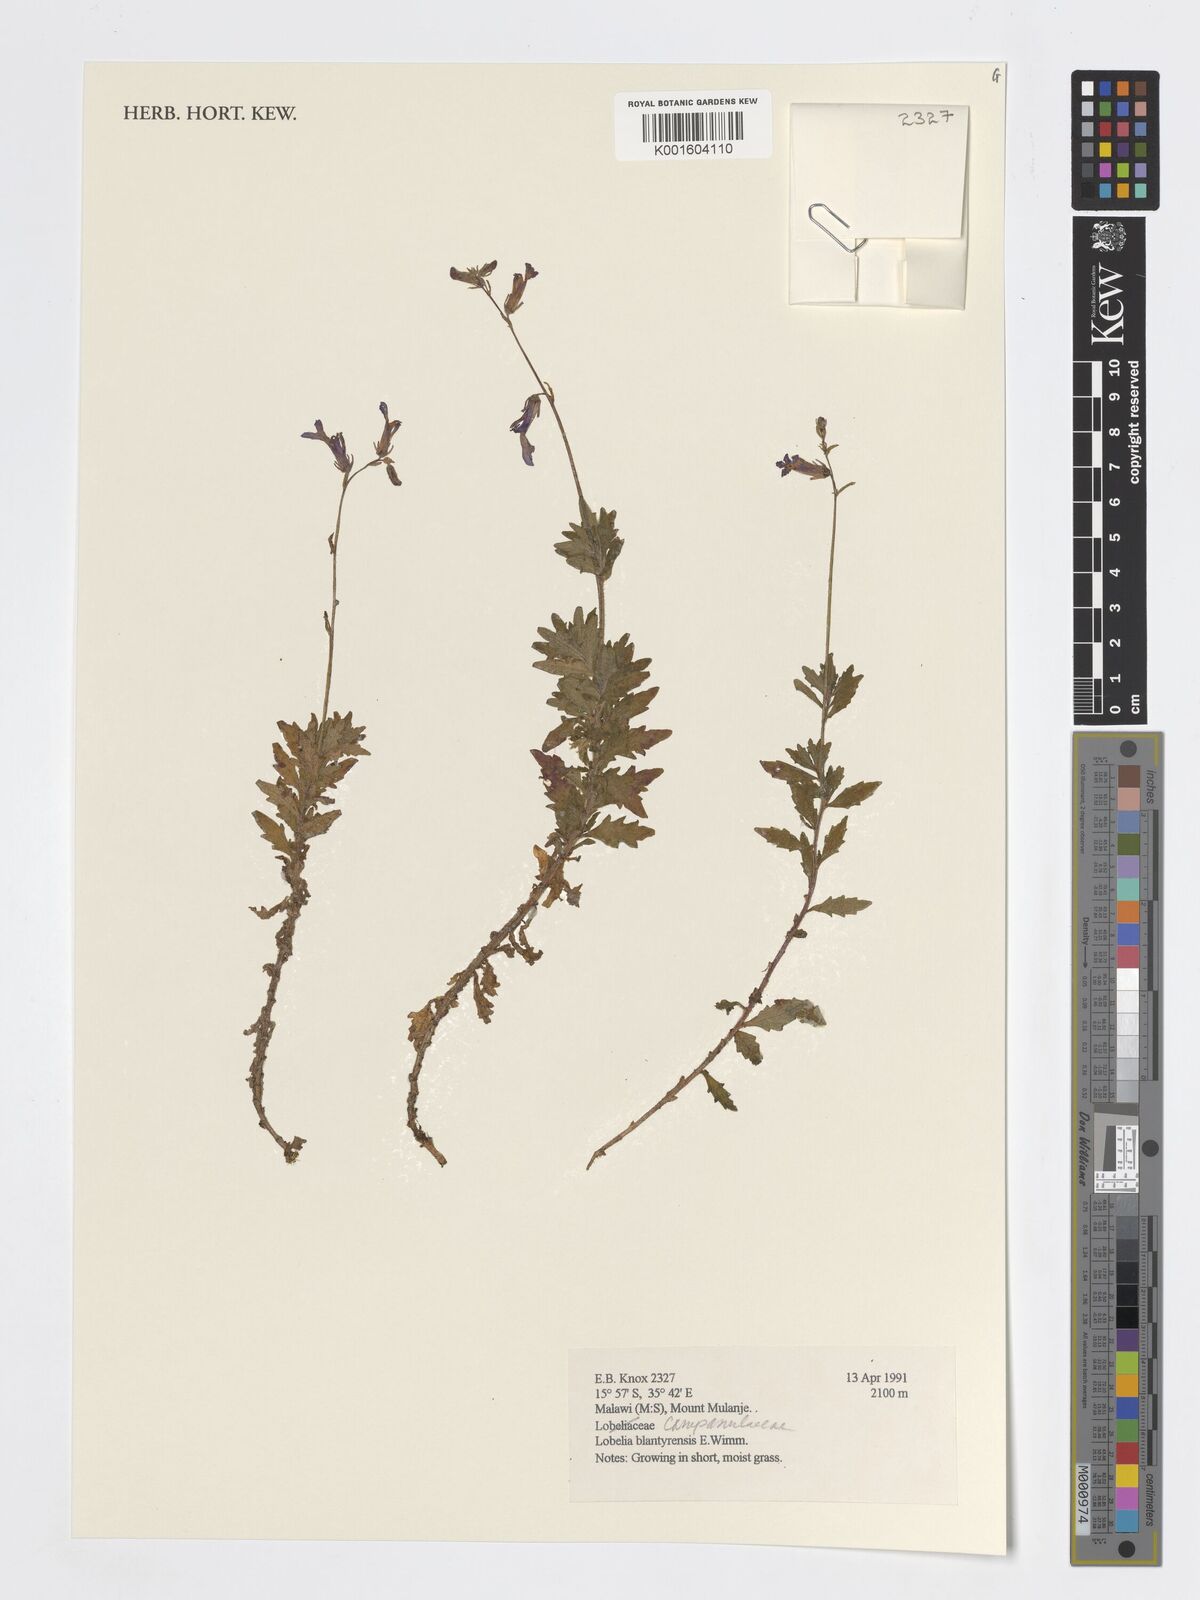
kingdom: Plantae
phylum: Tracheophyta
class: Magnoliopsida
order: Asterales
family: Campanulaceae
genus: Lobelia
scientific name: Lobelia blantyrensis
